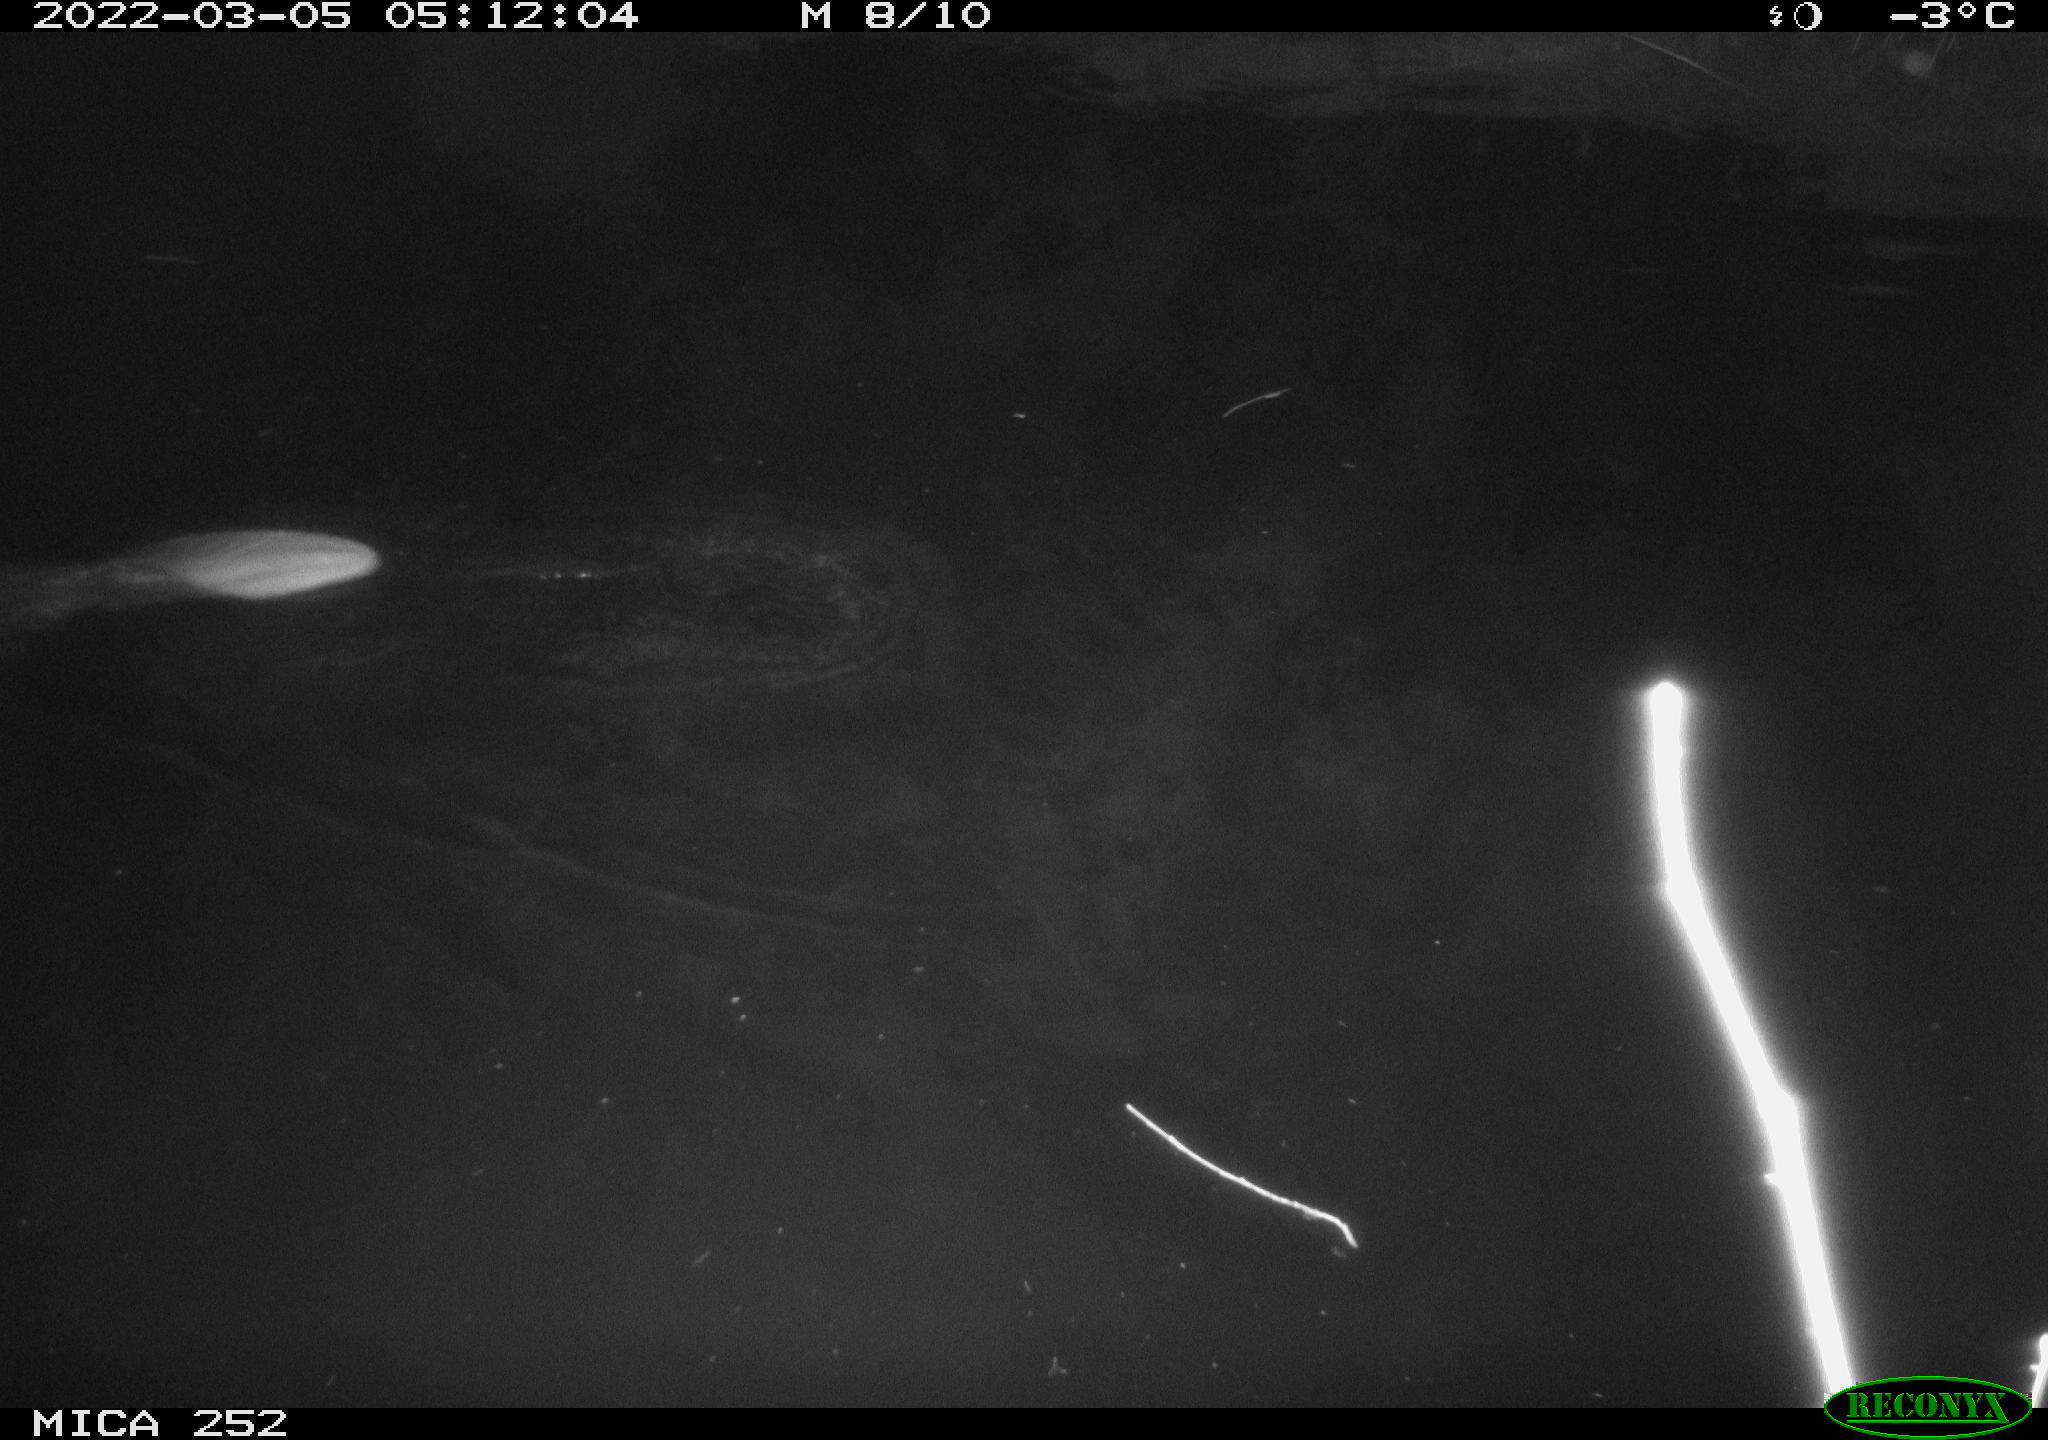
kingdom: Animalia
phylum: Chordata
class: Mammalia
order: Rodentia
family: Castoridae
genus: Castor
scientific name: Castor fiber
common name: Eurasian beaver
